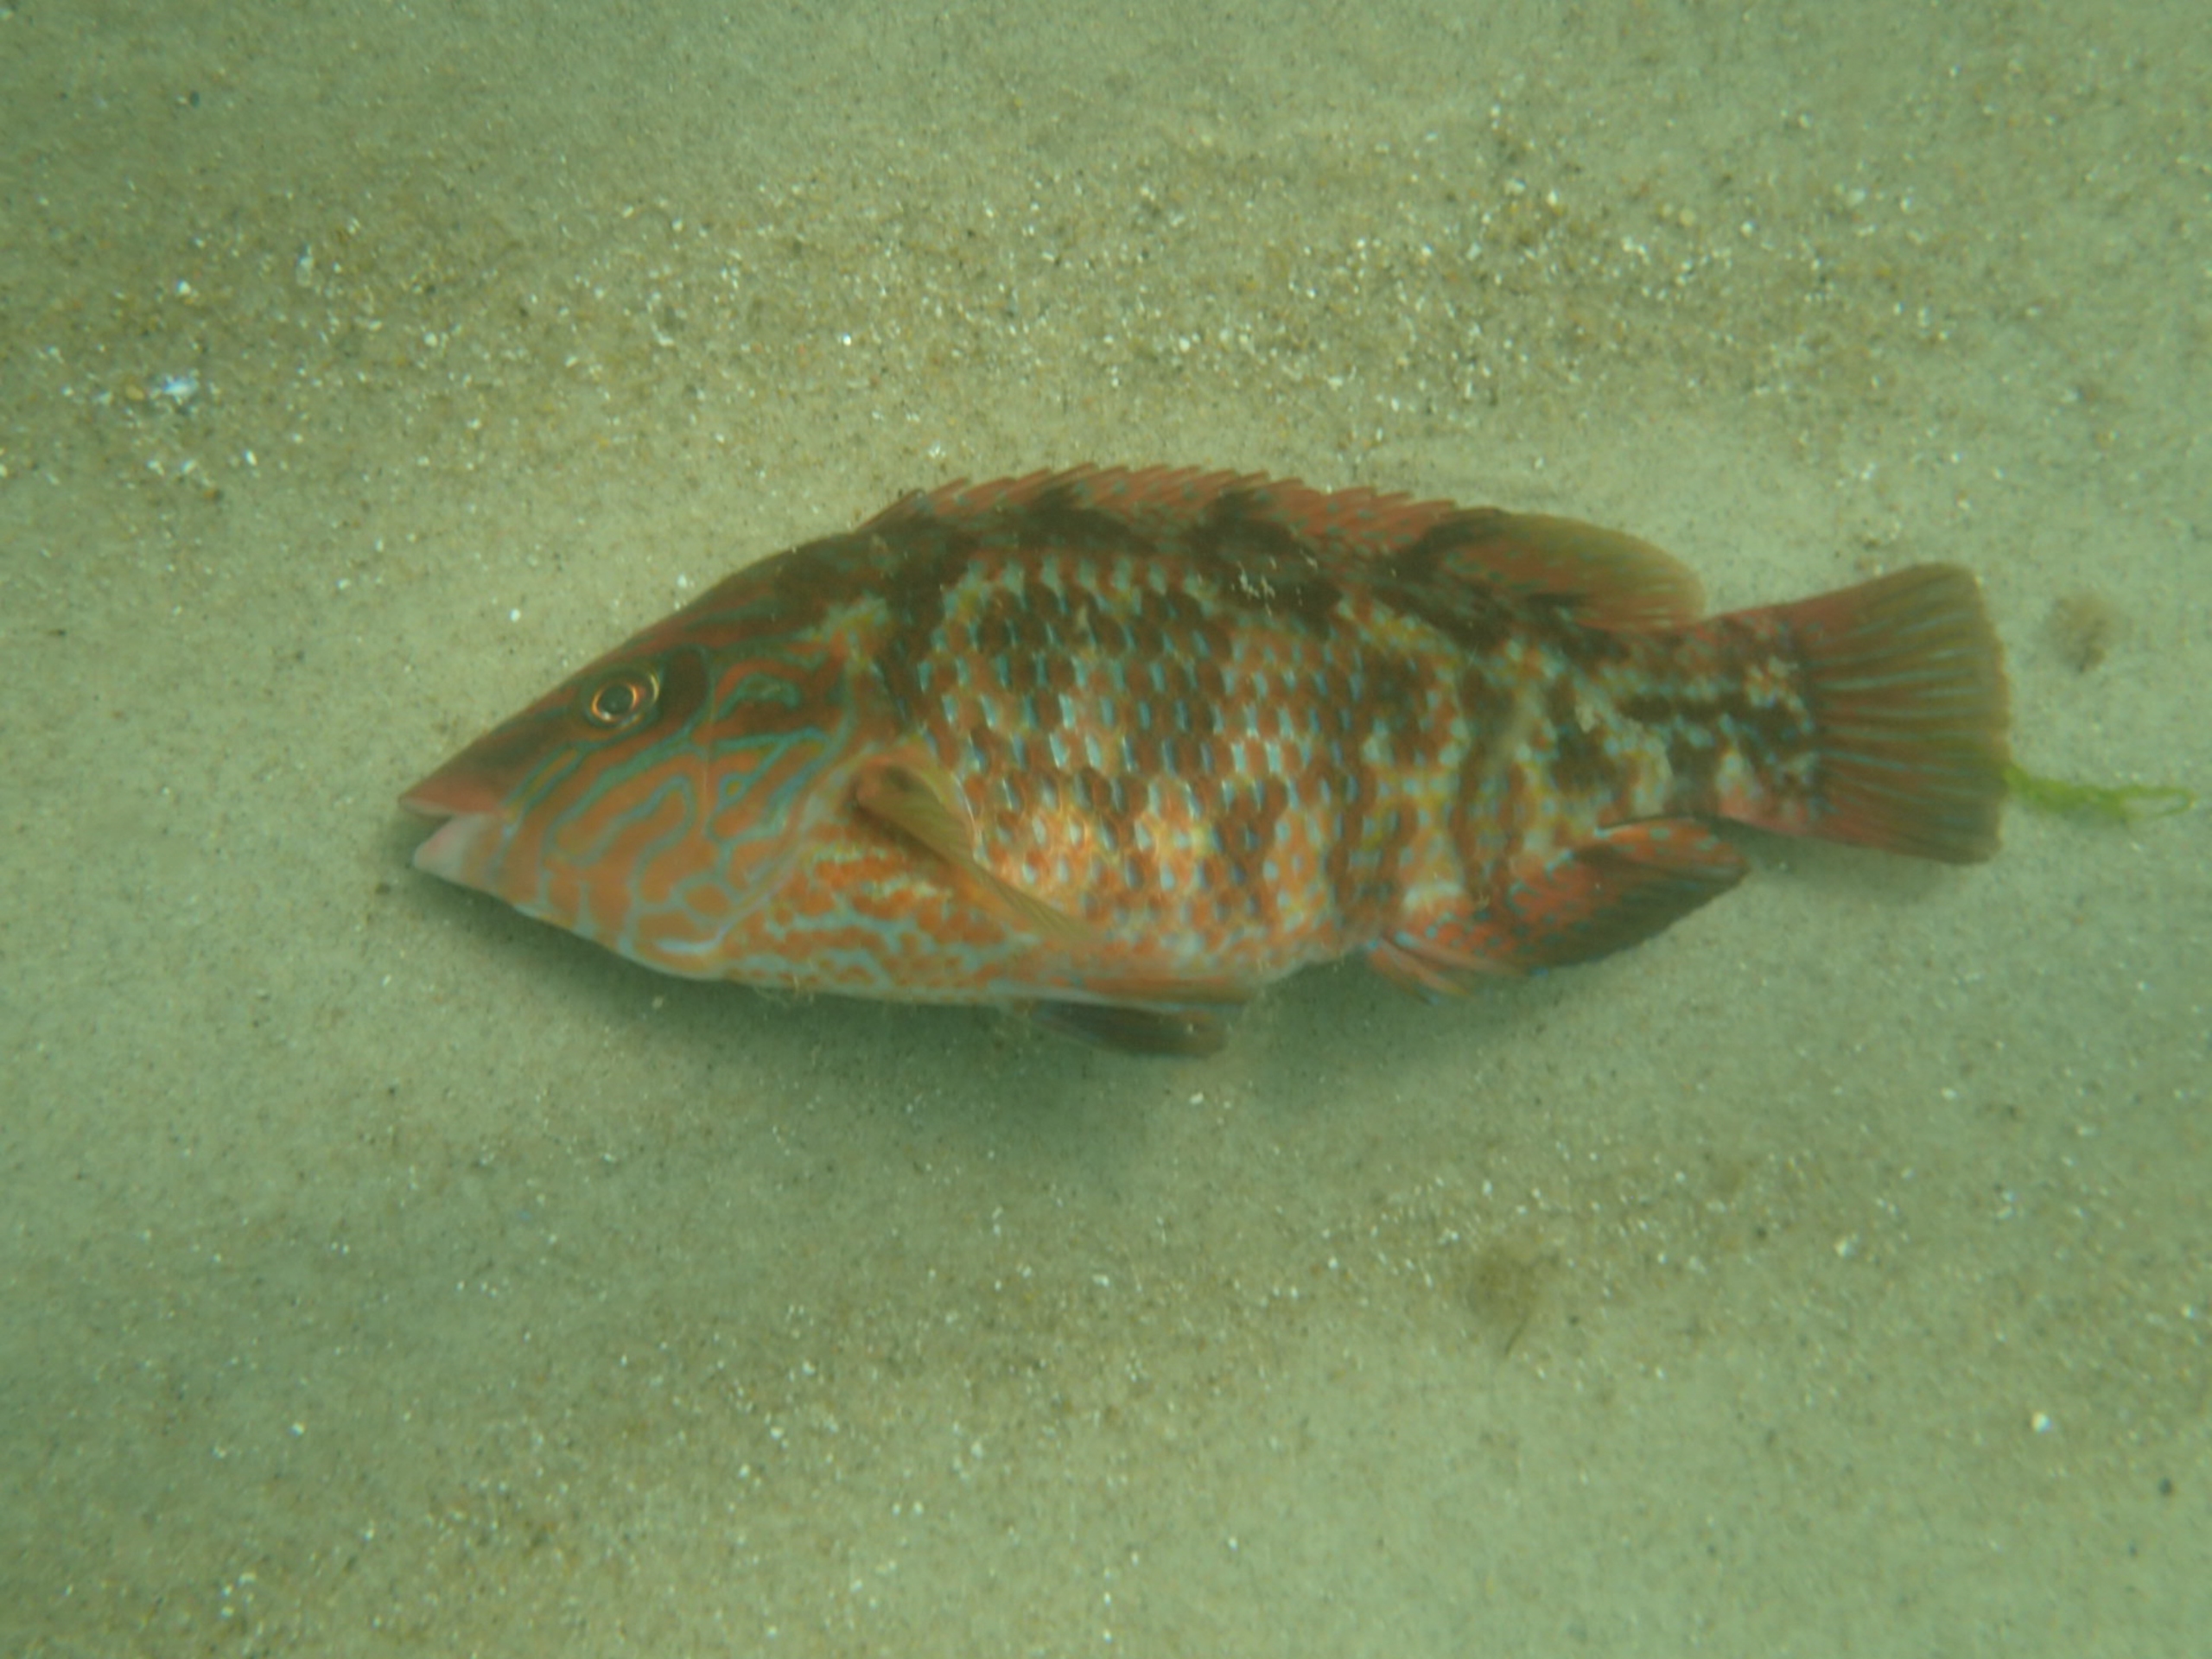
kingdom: Animalia
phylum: Chordata
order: Perciformes
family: Labridae
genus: Symphodus
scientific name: Symphodus melops
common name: Savgylte
